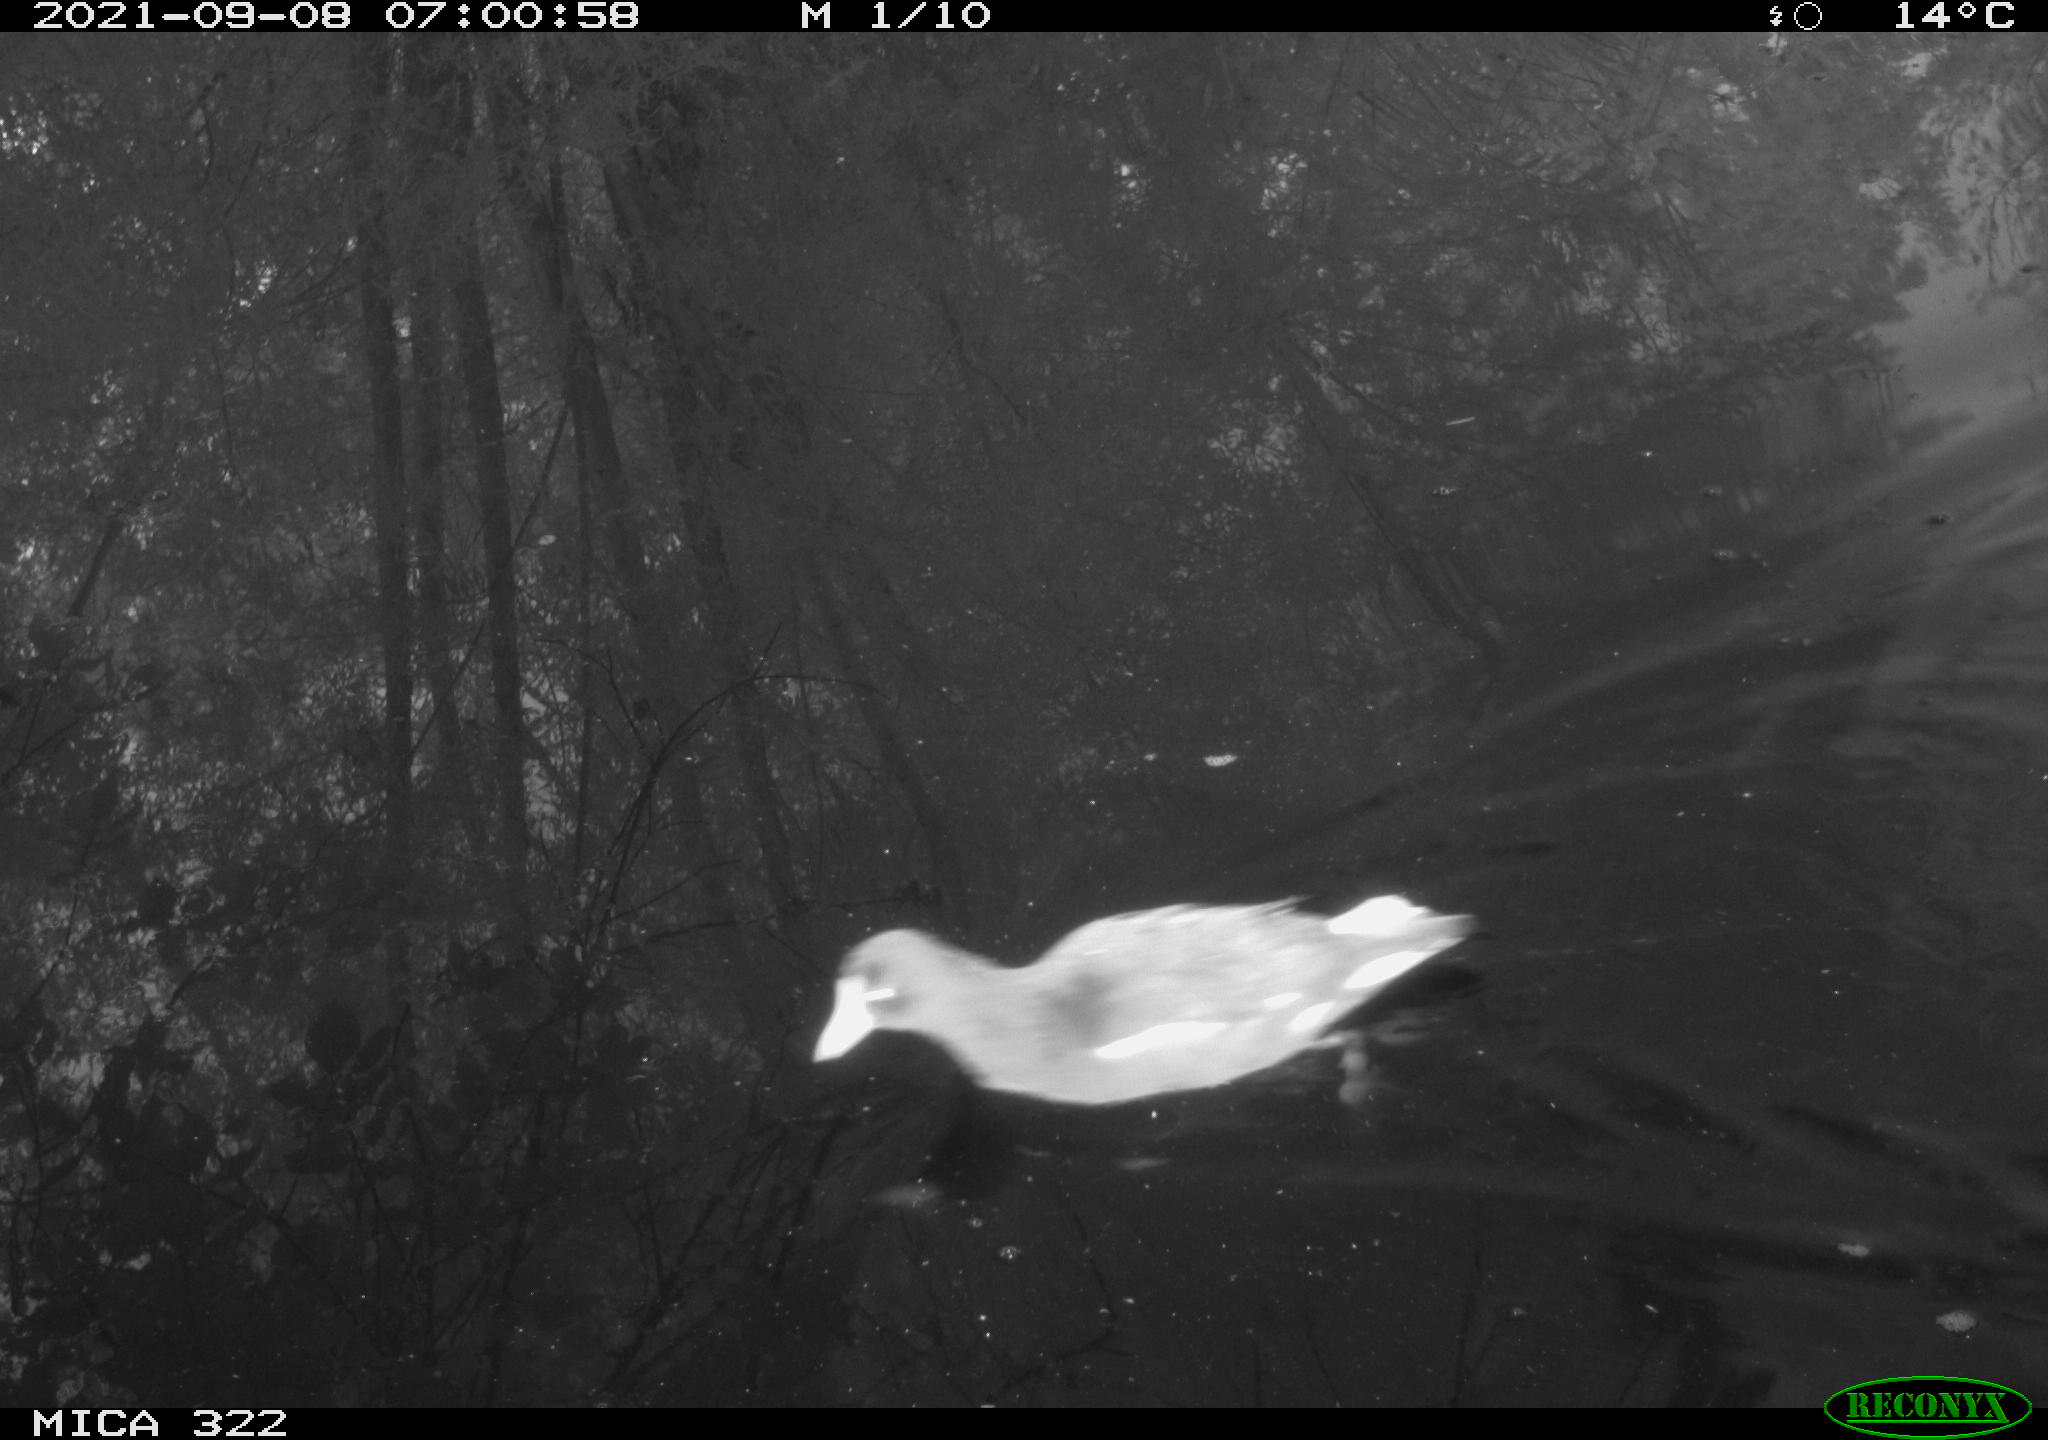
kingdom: Animalia
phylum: Chordata
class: Aves
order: Gruiformes
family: Rallidae
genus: Gallinula
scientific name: Gallinula chloropus
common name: Common moorhen
